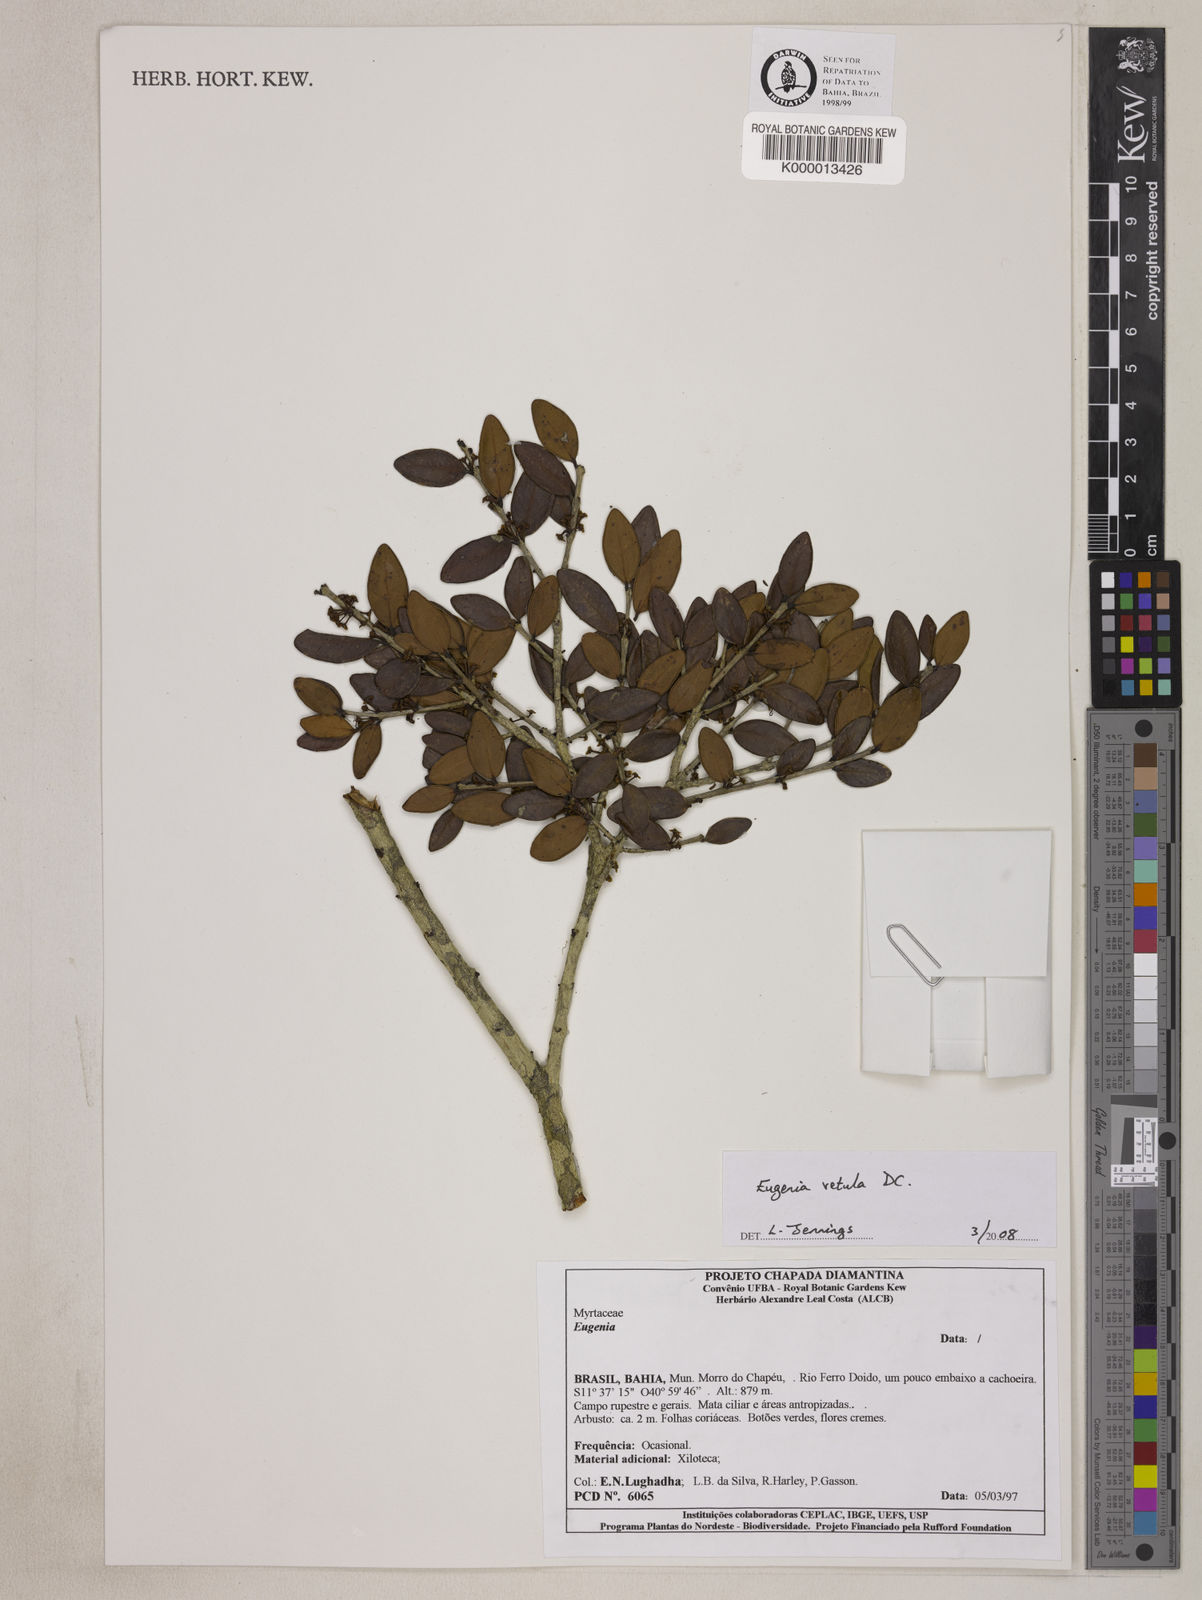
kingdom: Plantae
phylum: Tracheophyta
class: Magnoliopsida
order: Myrtales
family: Myrtaceae
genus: Eugenia
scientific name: Eugenia vetula
